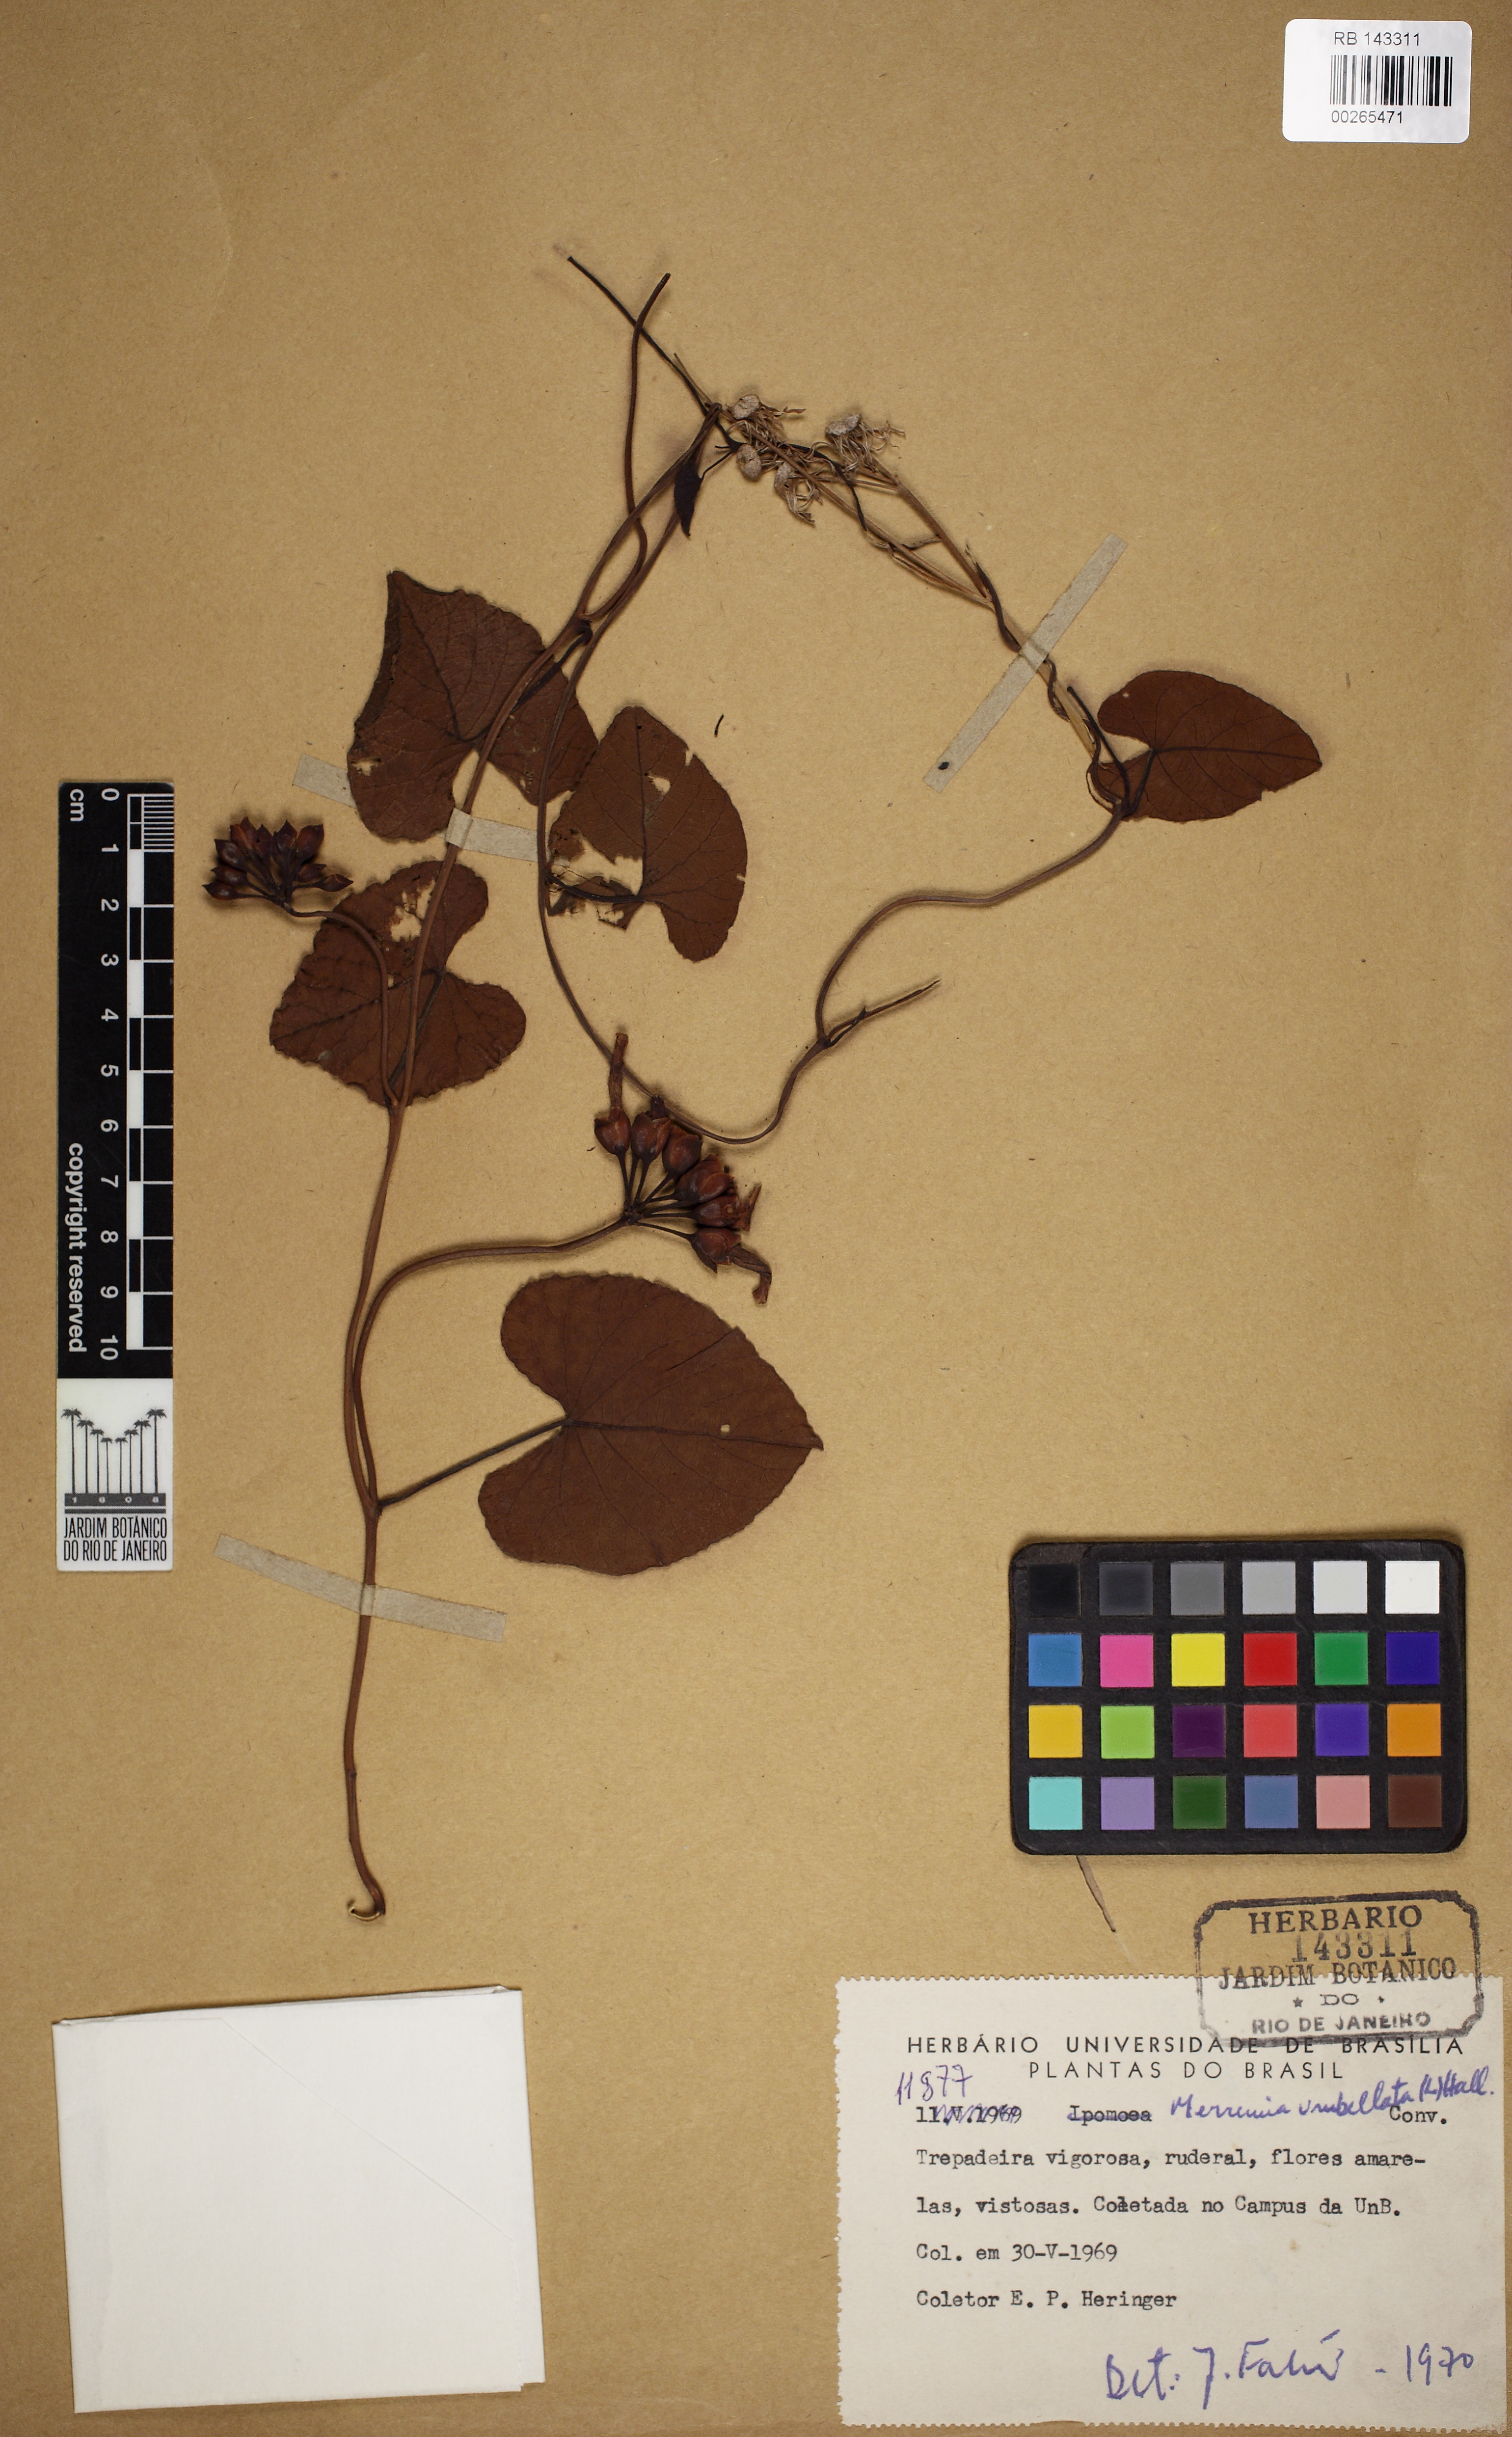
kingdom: Plantae
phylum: Tracheophyta
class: Magnoliopsida
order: Solanales
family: Convolvulaceae
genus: Camonea
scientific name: Camonea umbellata
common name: Hogvine
